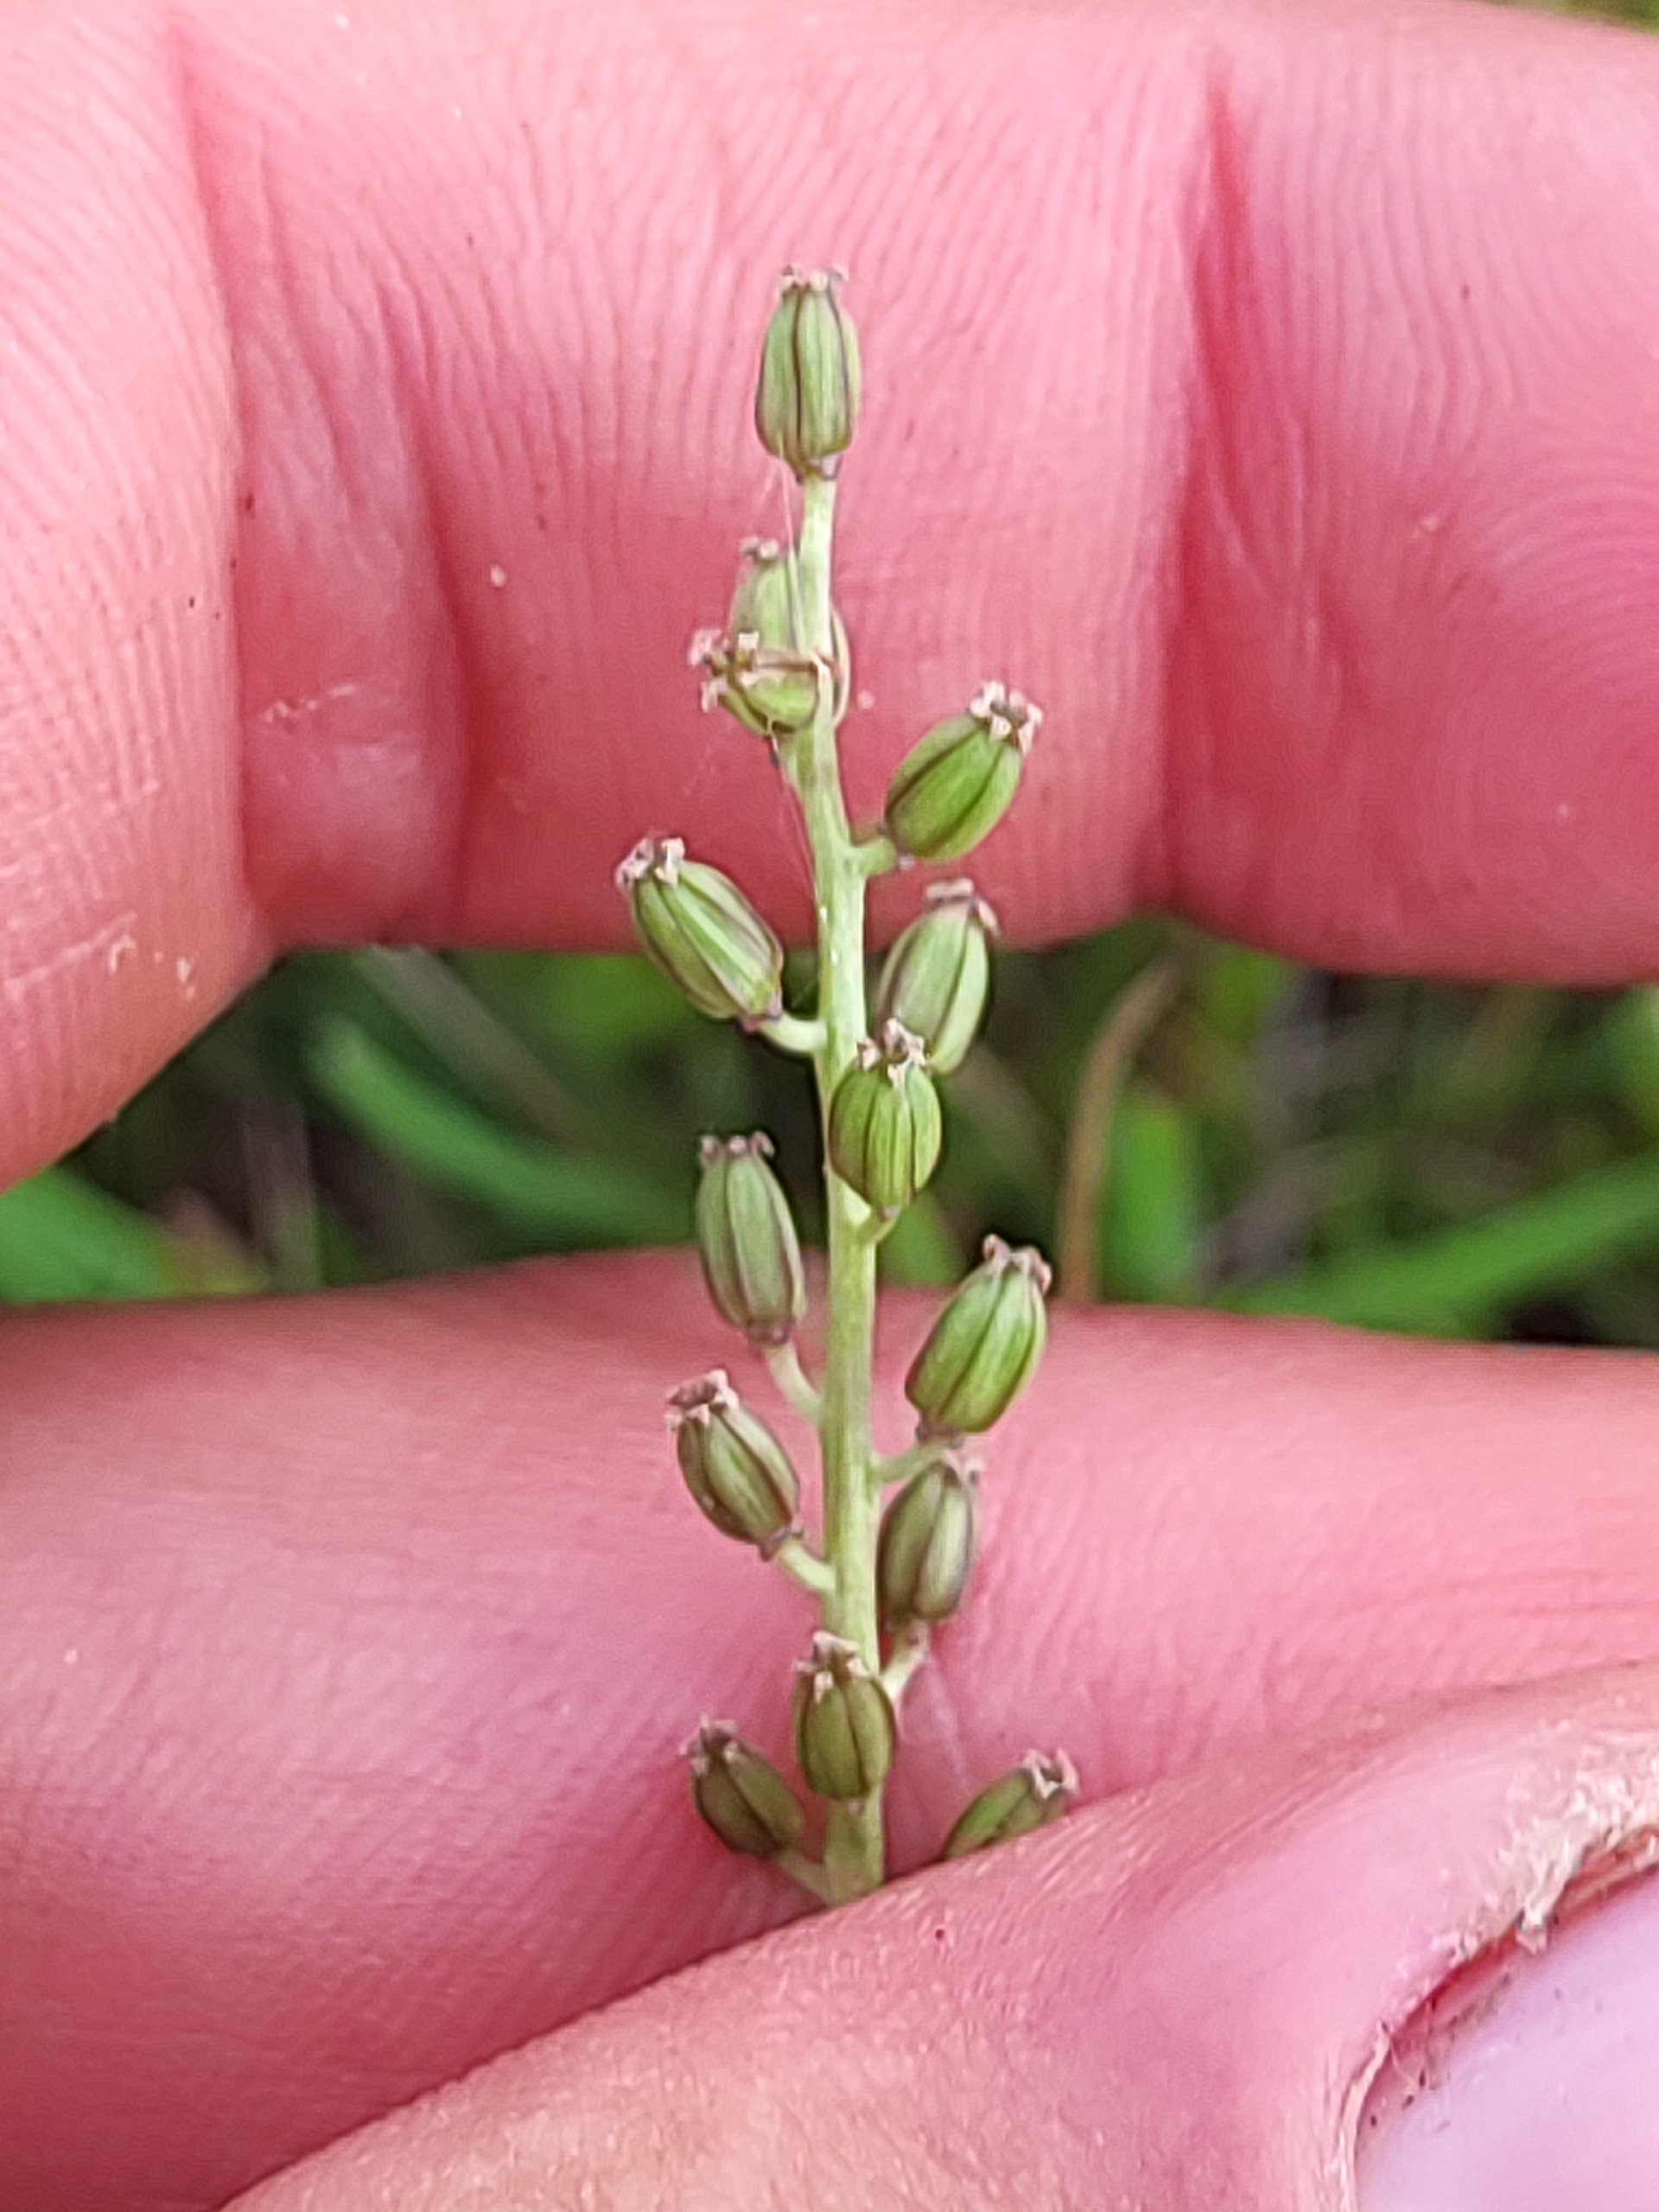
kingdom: Plantae
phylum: Tracheophyta
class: Liliopsida
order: Alismatales
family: Juncaginaceae
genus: Triglochin
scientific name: Triglochin maritima
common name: Strand-trehage
